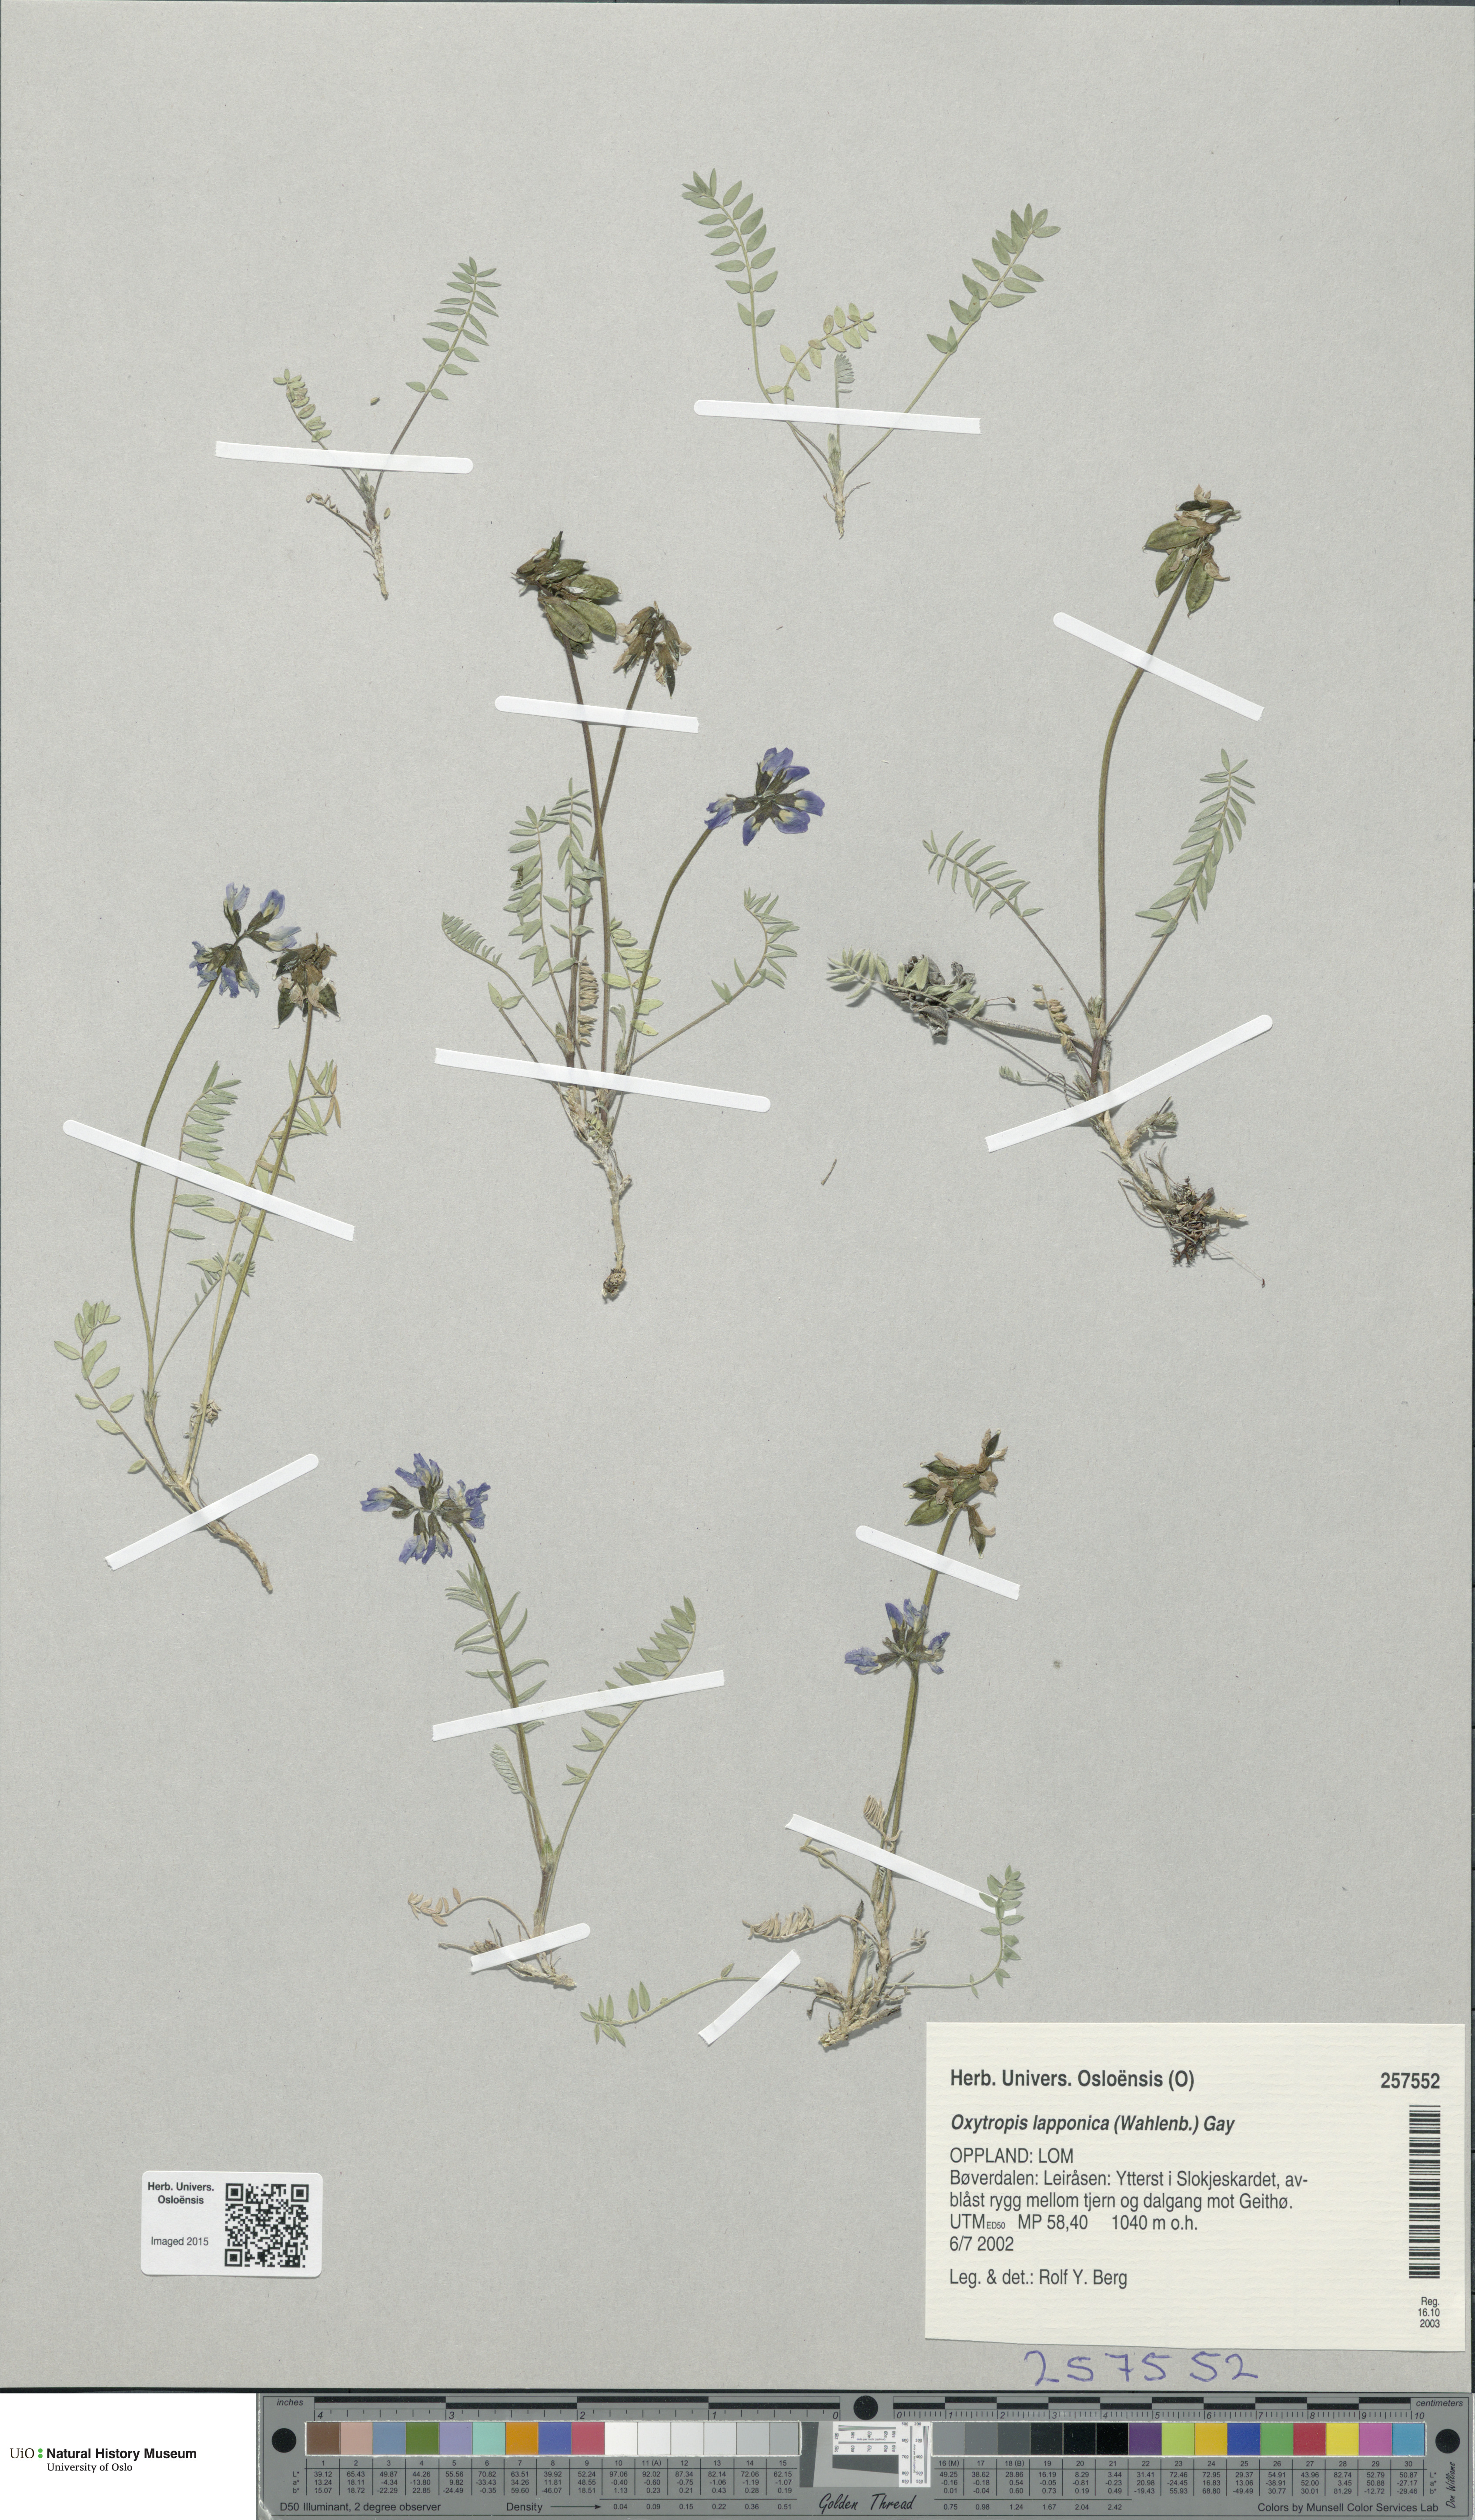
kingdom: Plantae
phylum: Tracheophyta
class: Magnoliopsida
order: Fabales
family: Fabaceae
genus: Oxytropis
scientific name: Oxytropis lapponica
